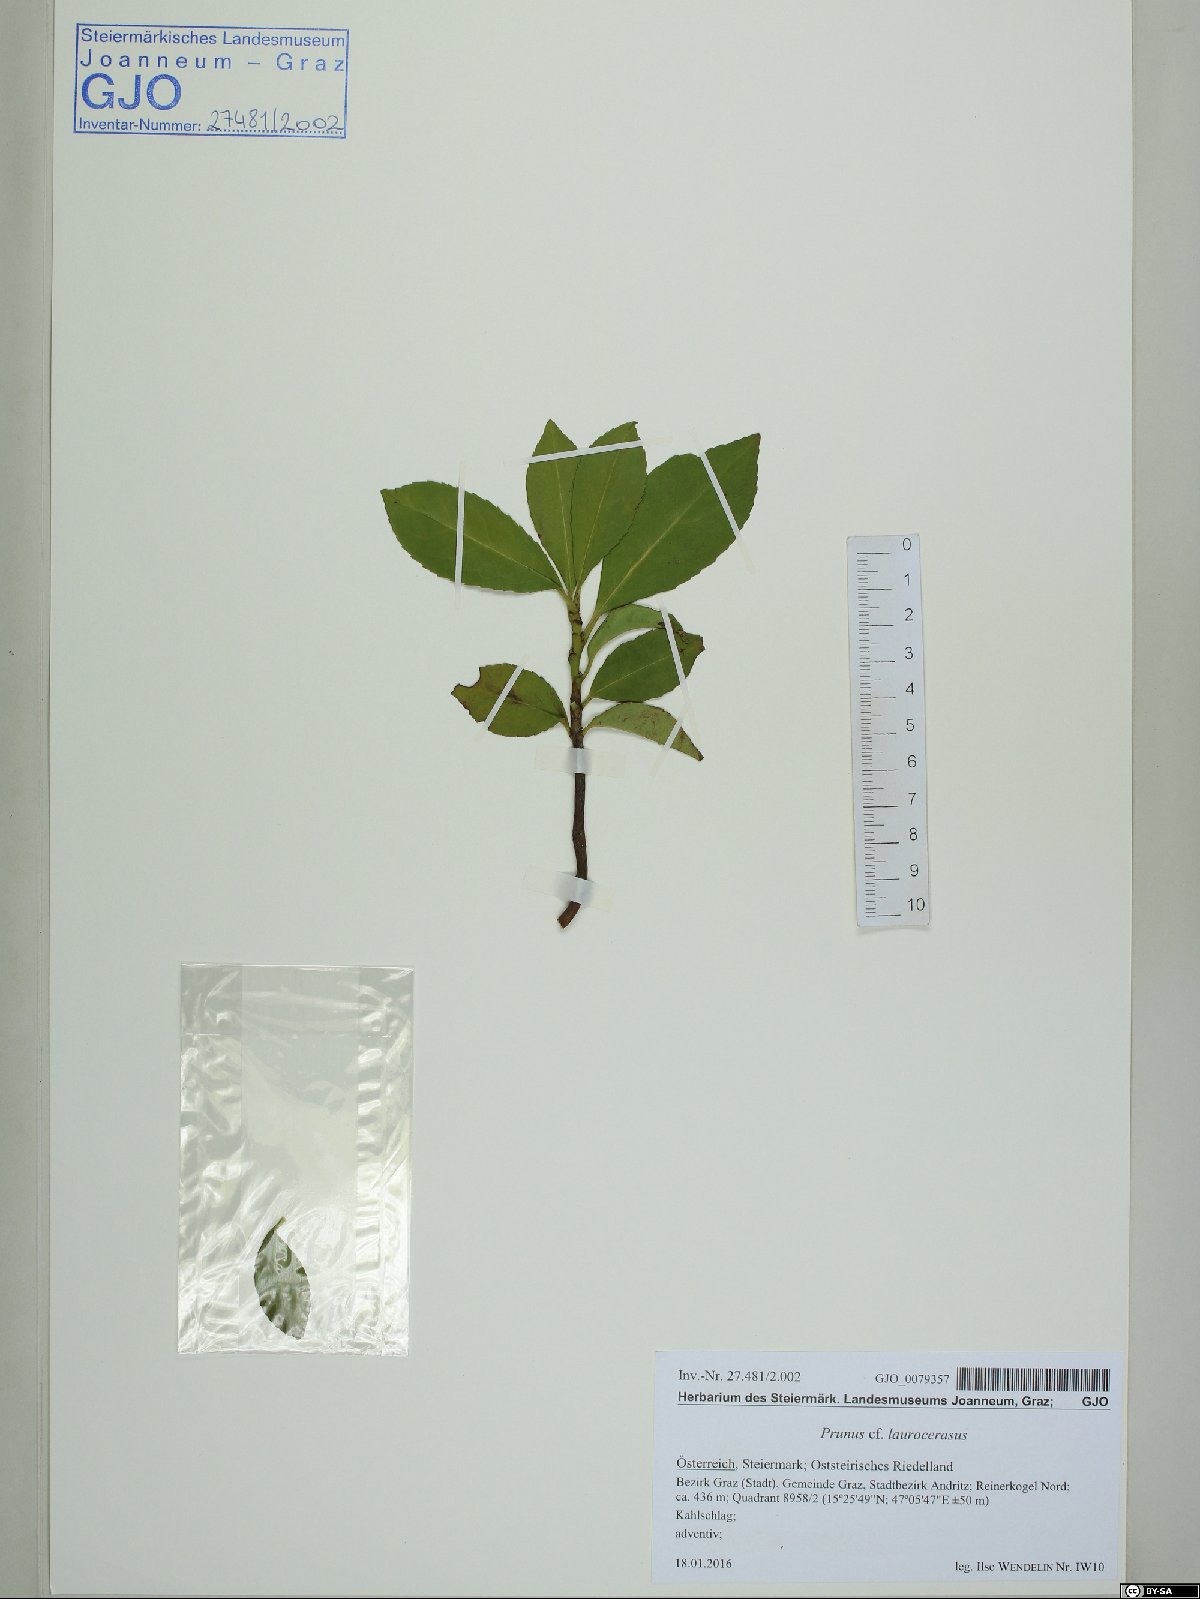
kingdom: Plantae
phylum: Tracheophyta
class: Magnoliopsida
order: Rosales
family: Rosaceae
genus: Prunus
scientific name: Prunus laurocerasus
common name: Cherry laurel
